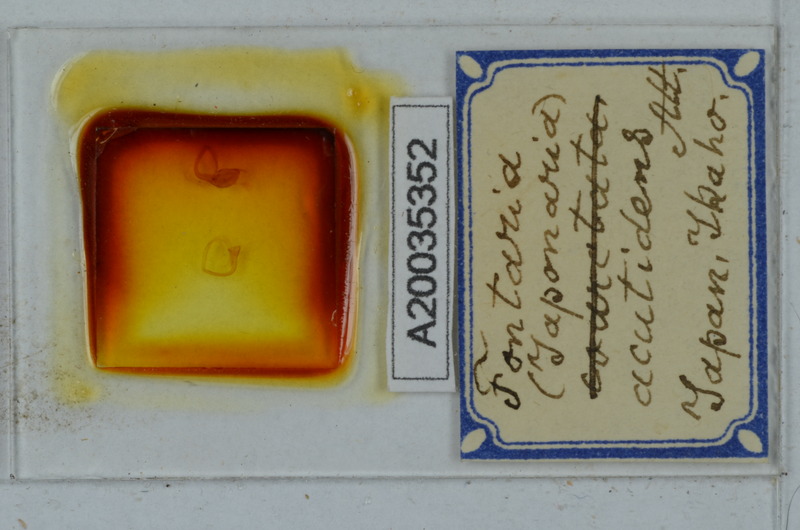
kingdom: Animalia
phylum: Arthropoda
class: Diplopoda
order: Polydesmida
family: Xystodesmidae
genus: Parafontaria
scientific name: Parafontaria tonominea
